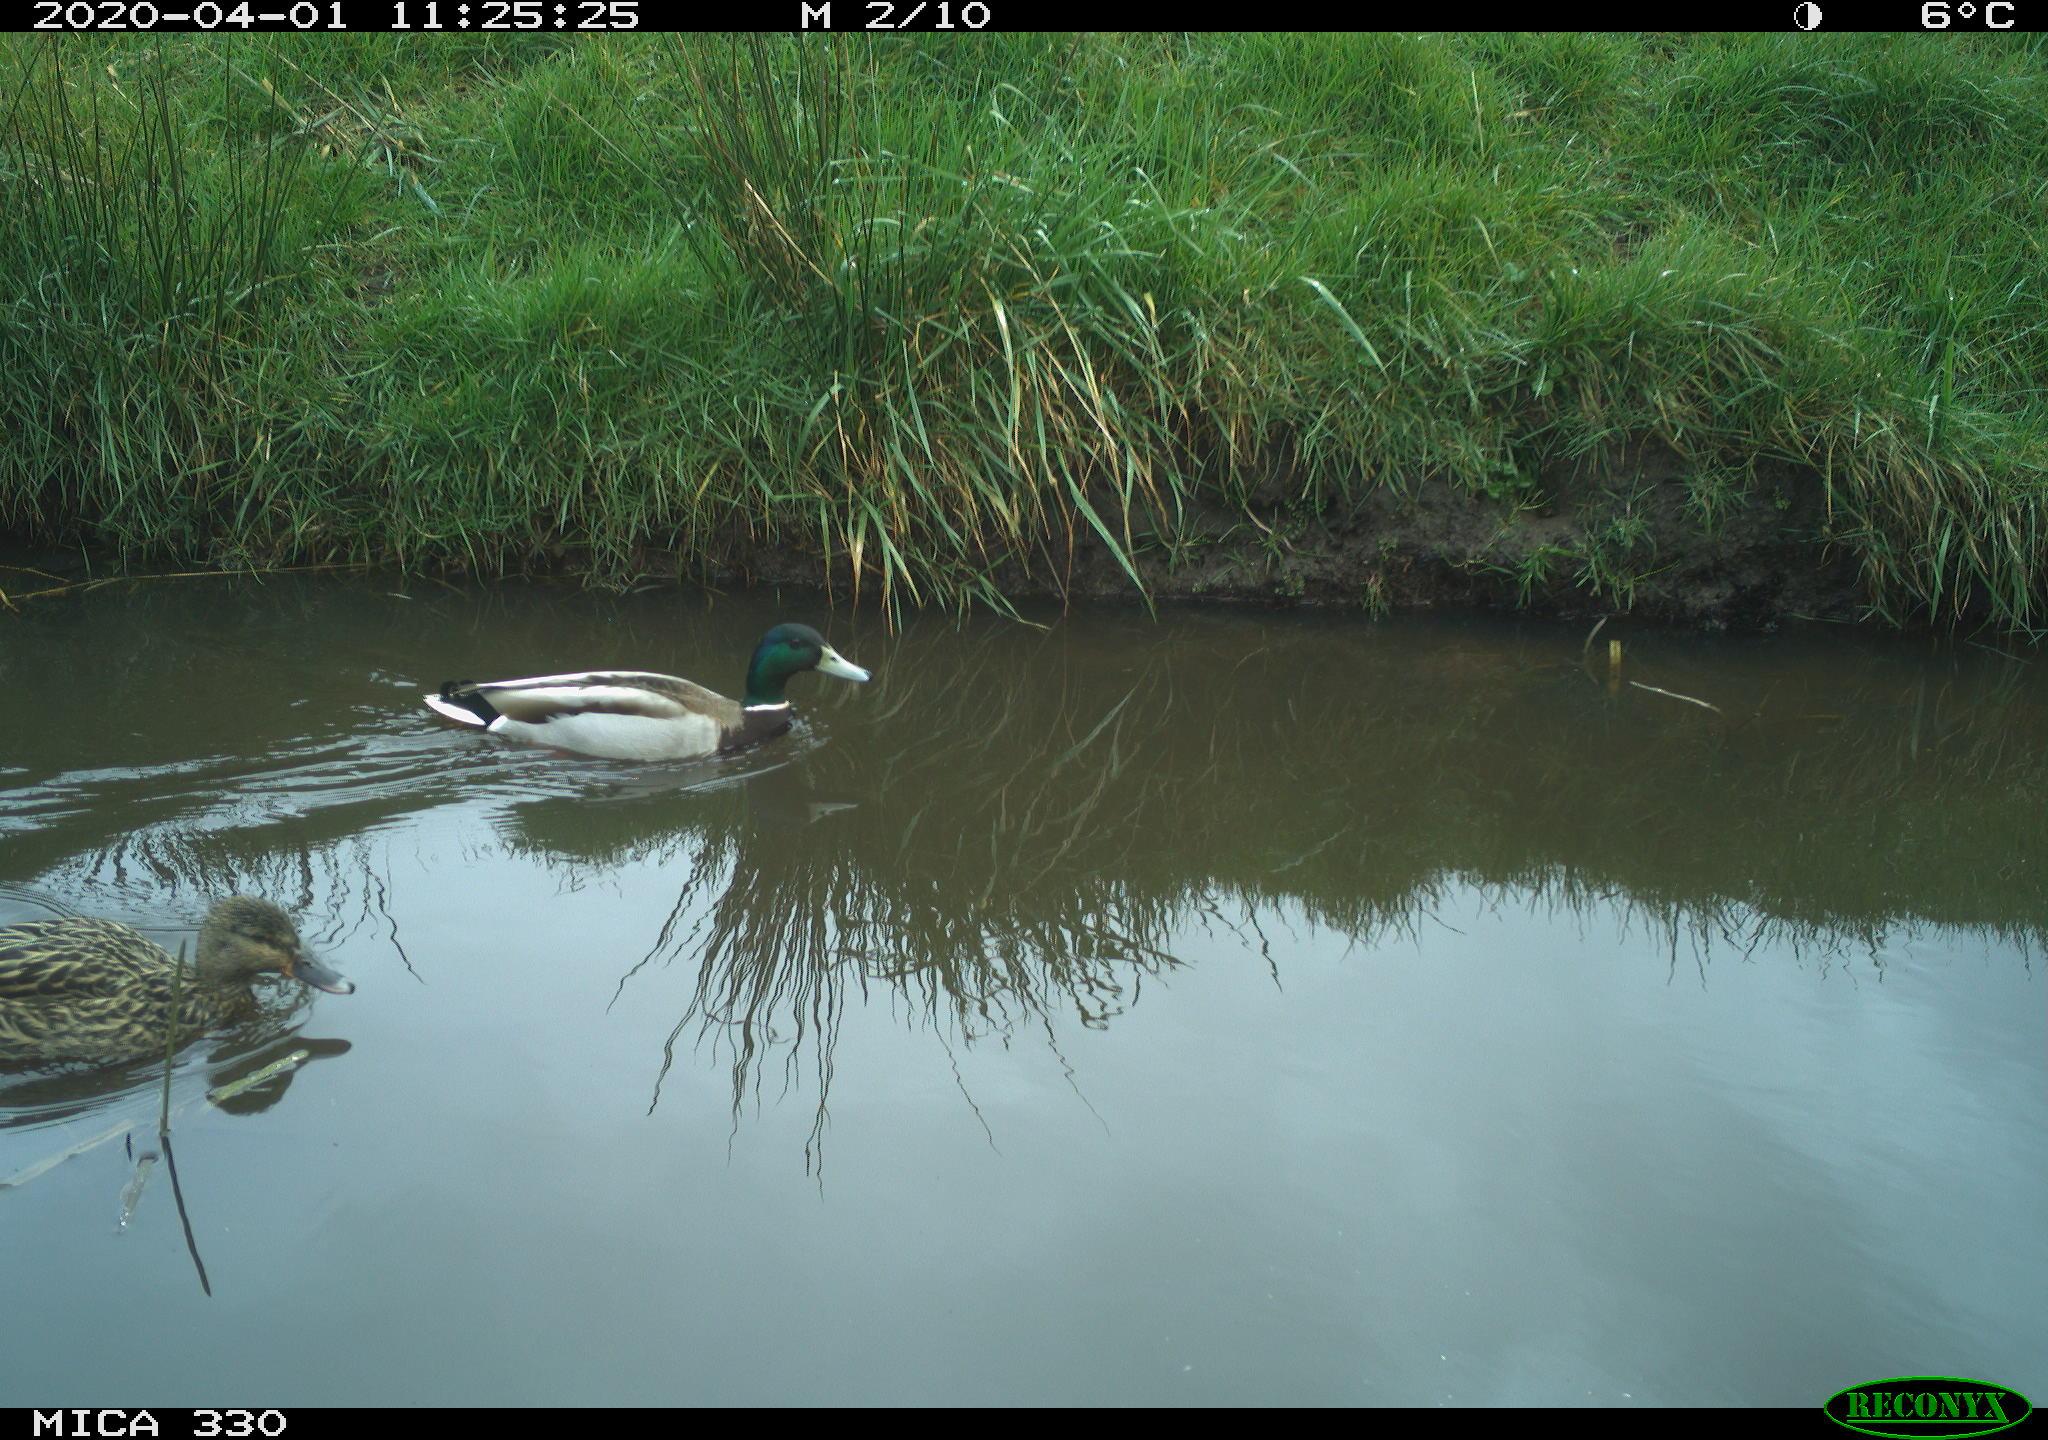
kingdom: Animalia
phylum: Chordata
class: Aves
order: Anseriformes
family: Anatidae
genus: Anas
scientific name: Anas platyrhynchos
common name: Mallard
